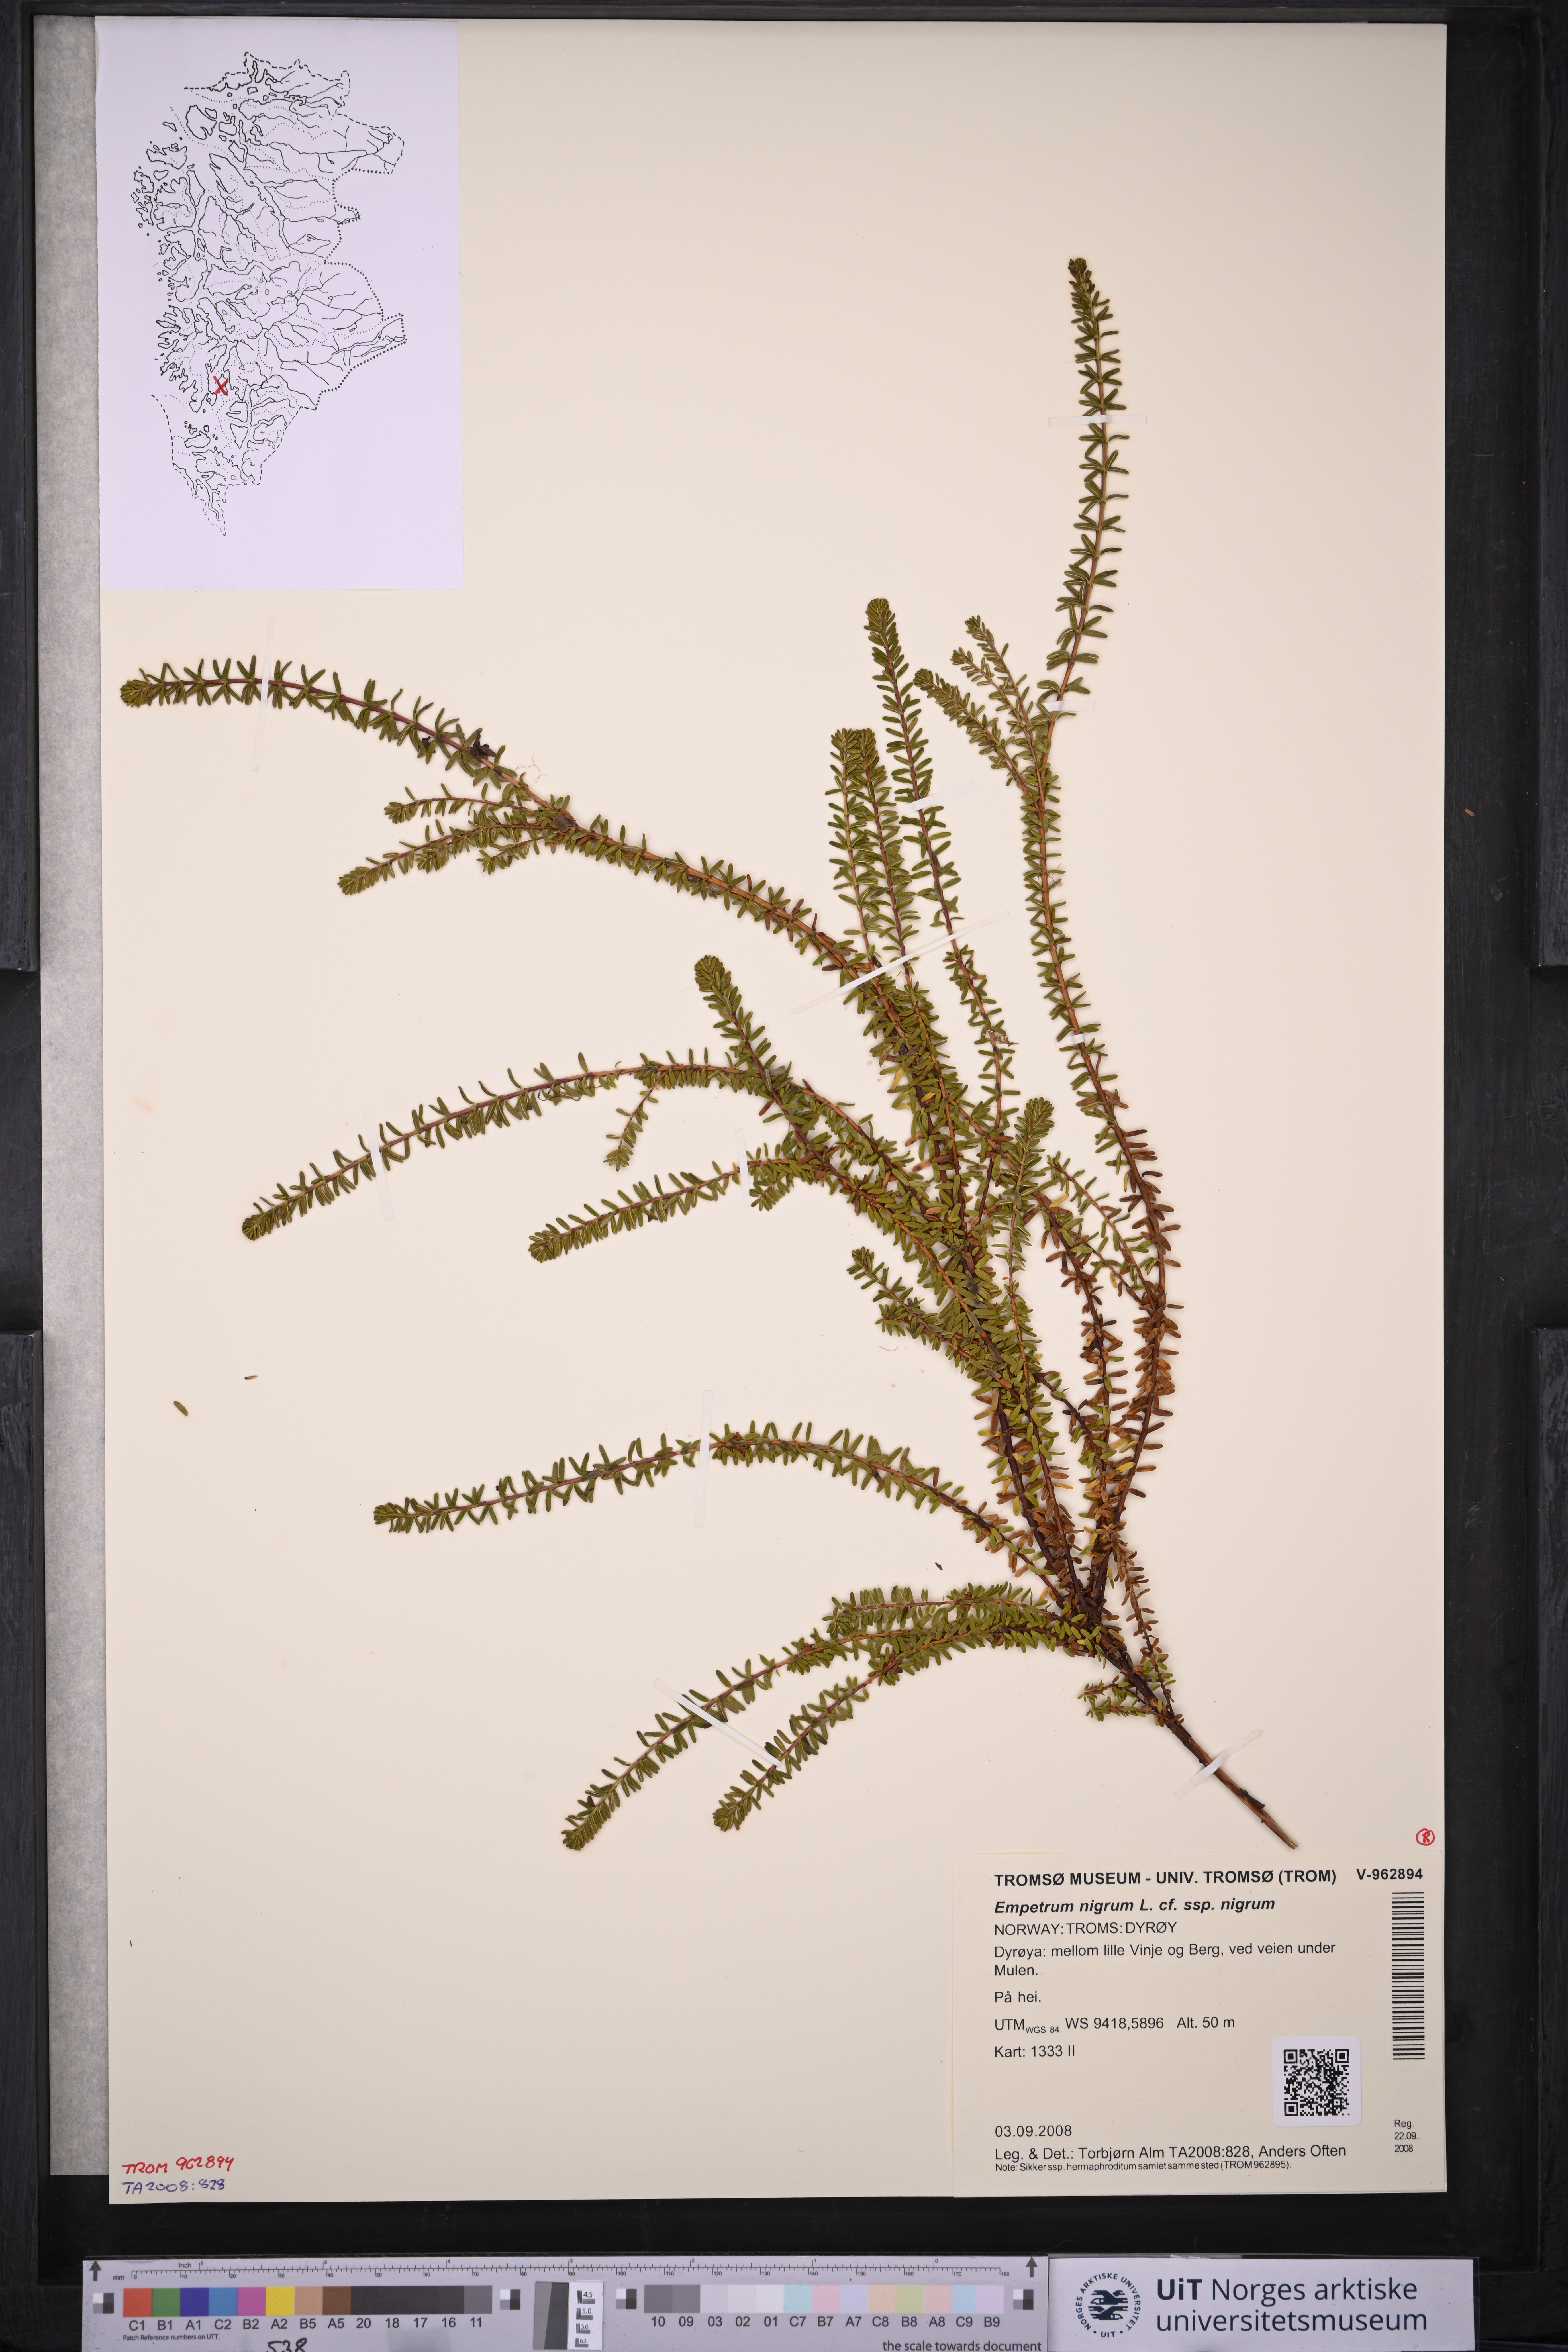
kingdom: Plantae
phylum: Tracheophyta
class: Magnoliopsida
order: Ericales
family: Ericaceae
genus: Empetrum
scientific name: Empetrum nigrum
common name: Black crowberry
